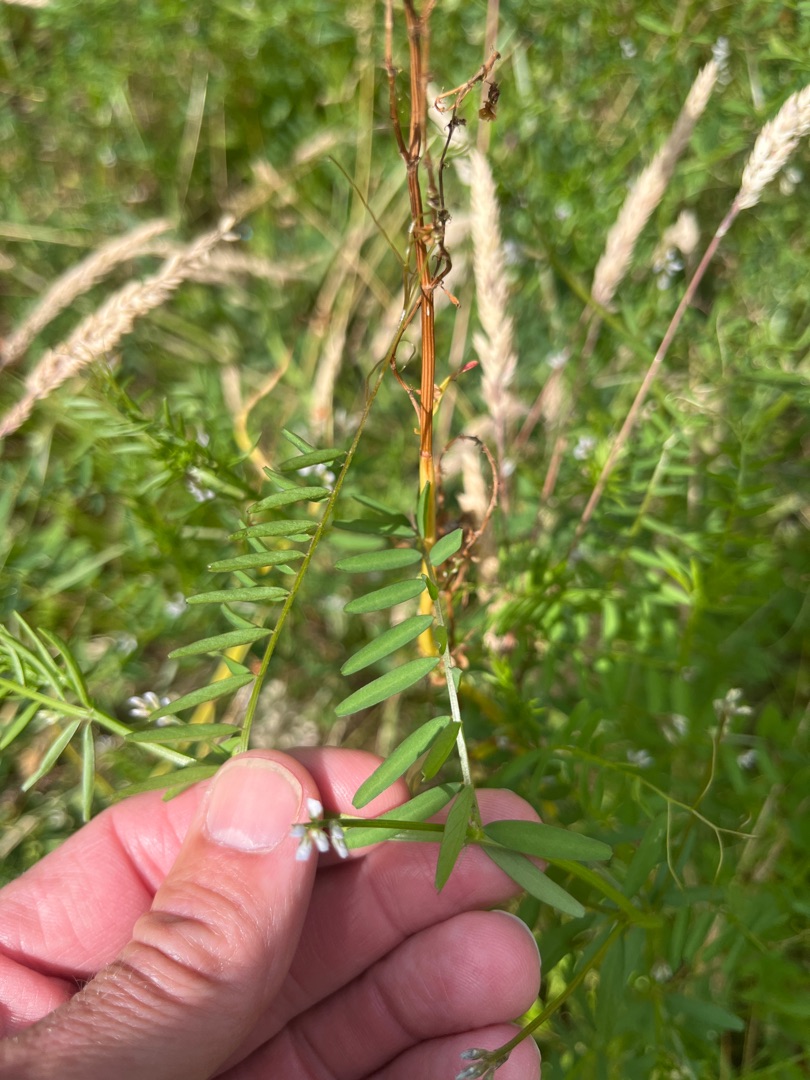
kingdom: Plantae
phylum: Tracheophyta
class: Magnoliopsida
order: Fabales
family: Fabaceae
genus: Vicia
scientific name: Vicia hirsuta
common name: Tofrøet vikke
